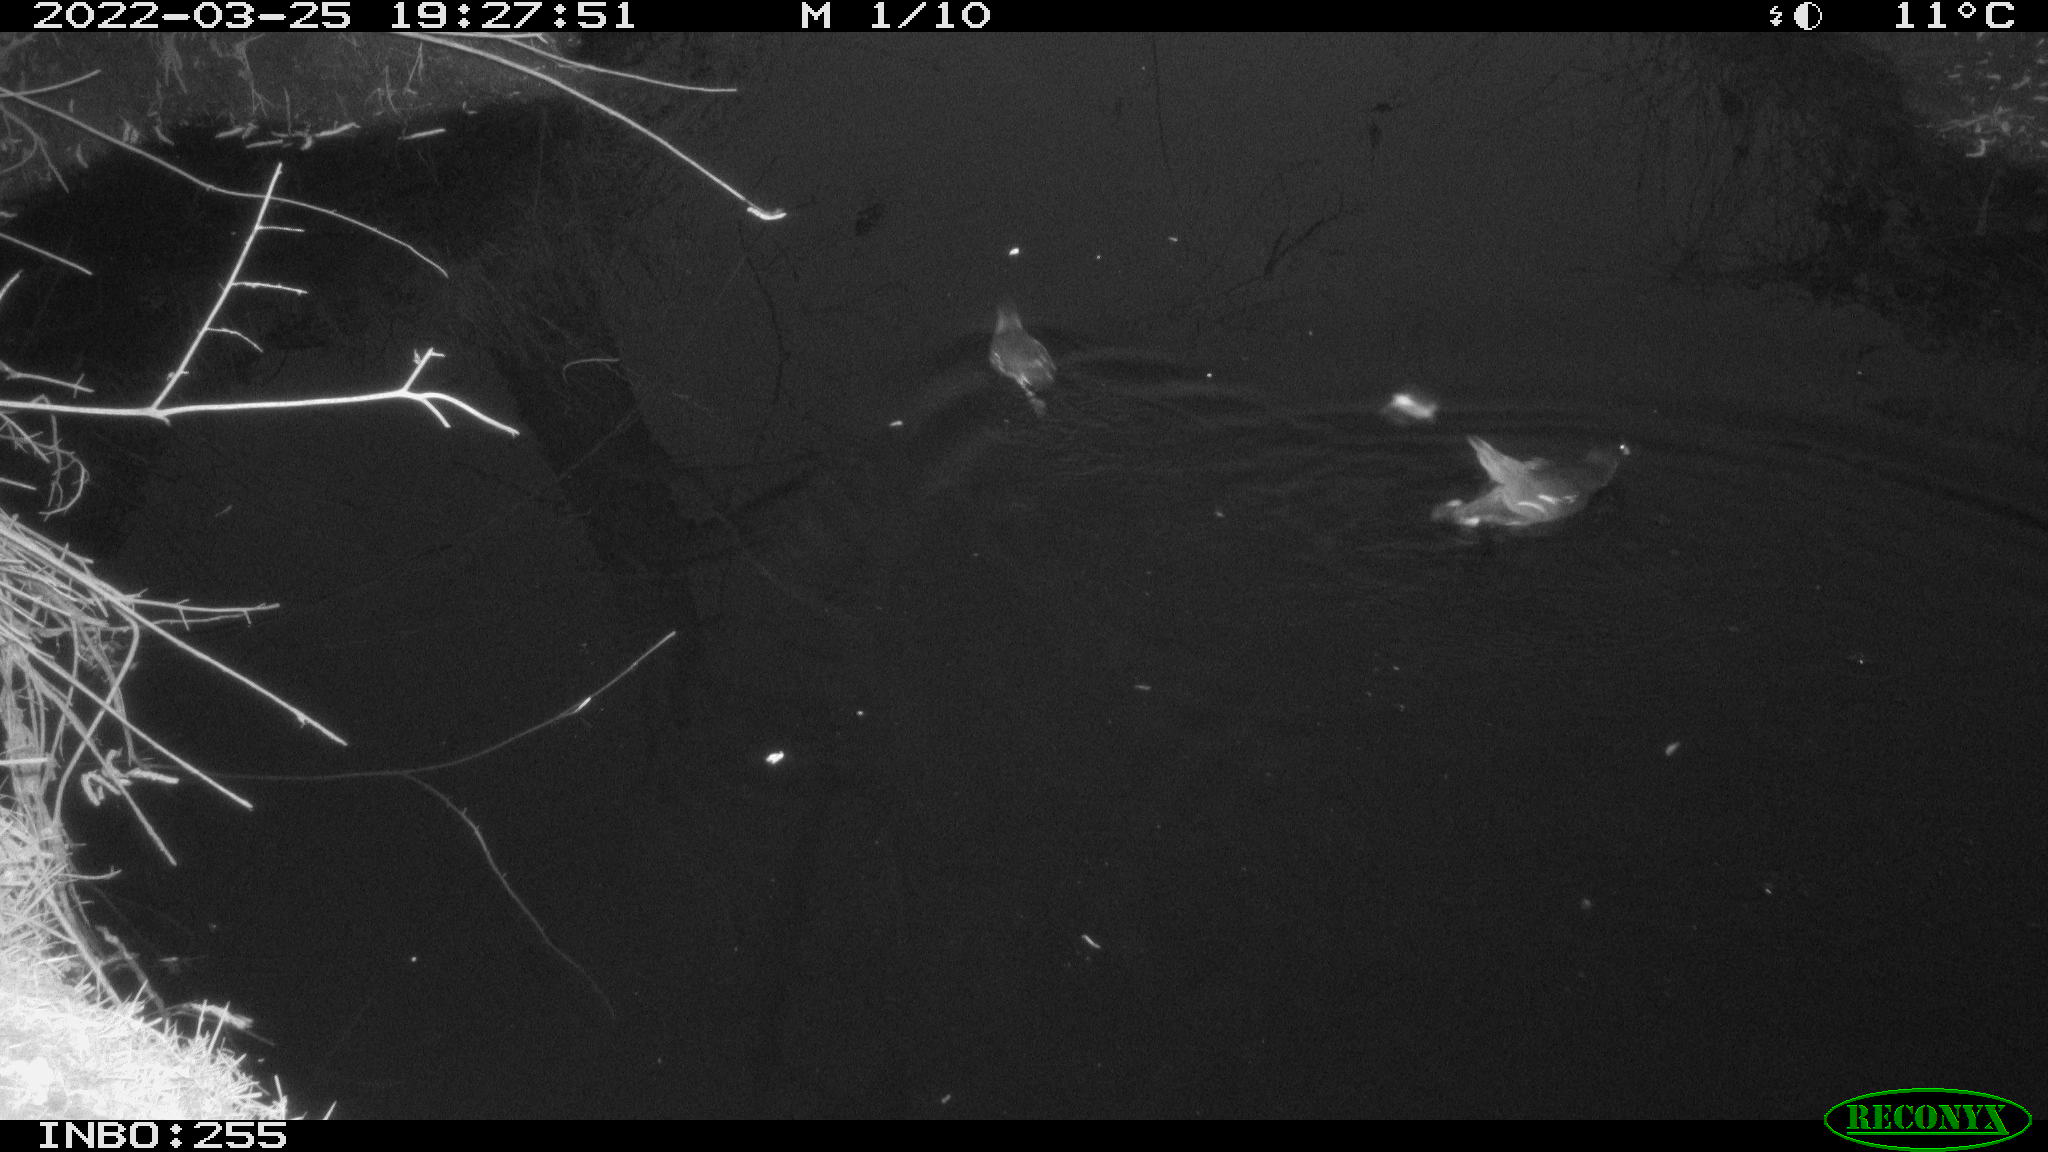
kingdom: Animalia
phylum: Chordata
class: Aves
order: Gruiformes
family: Rallidae
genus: Gallinula
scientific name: Gallinula chloropus
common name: Common moorhen
